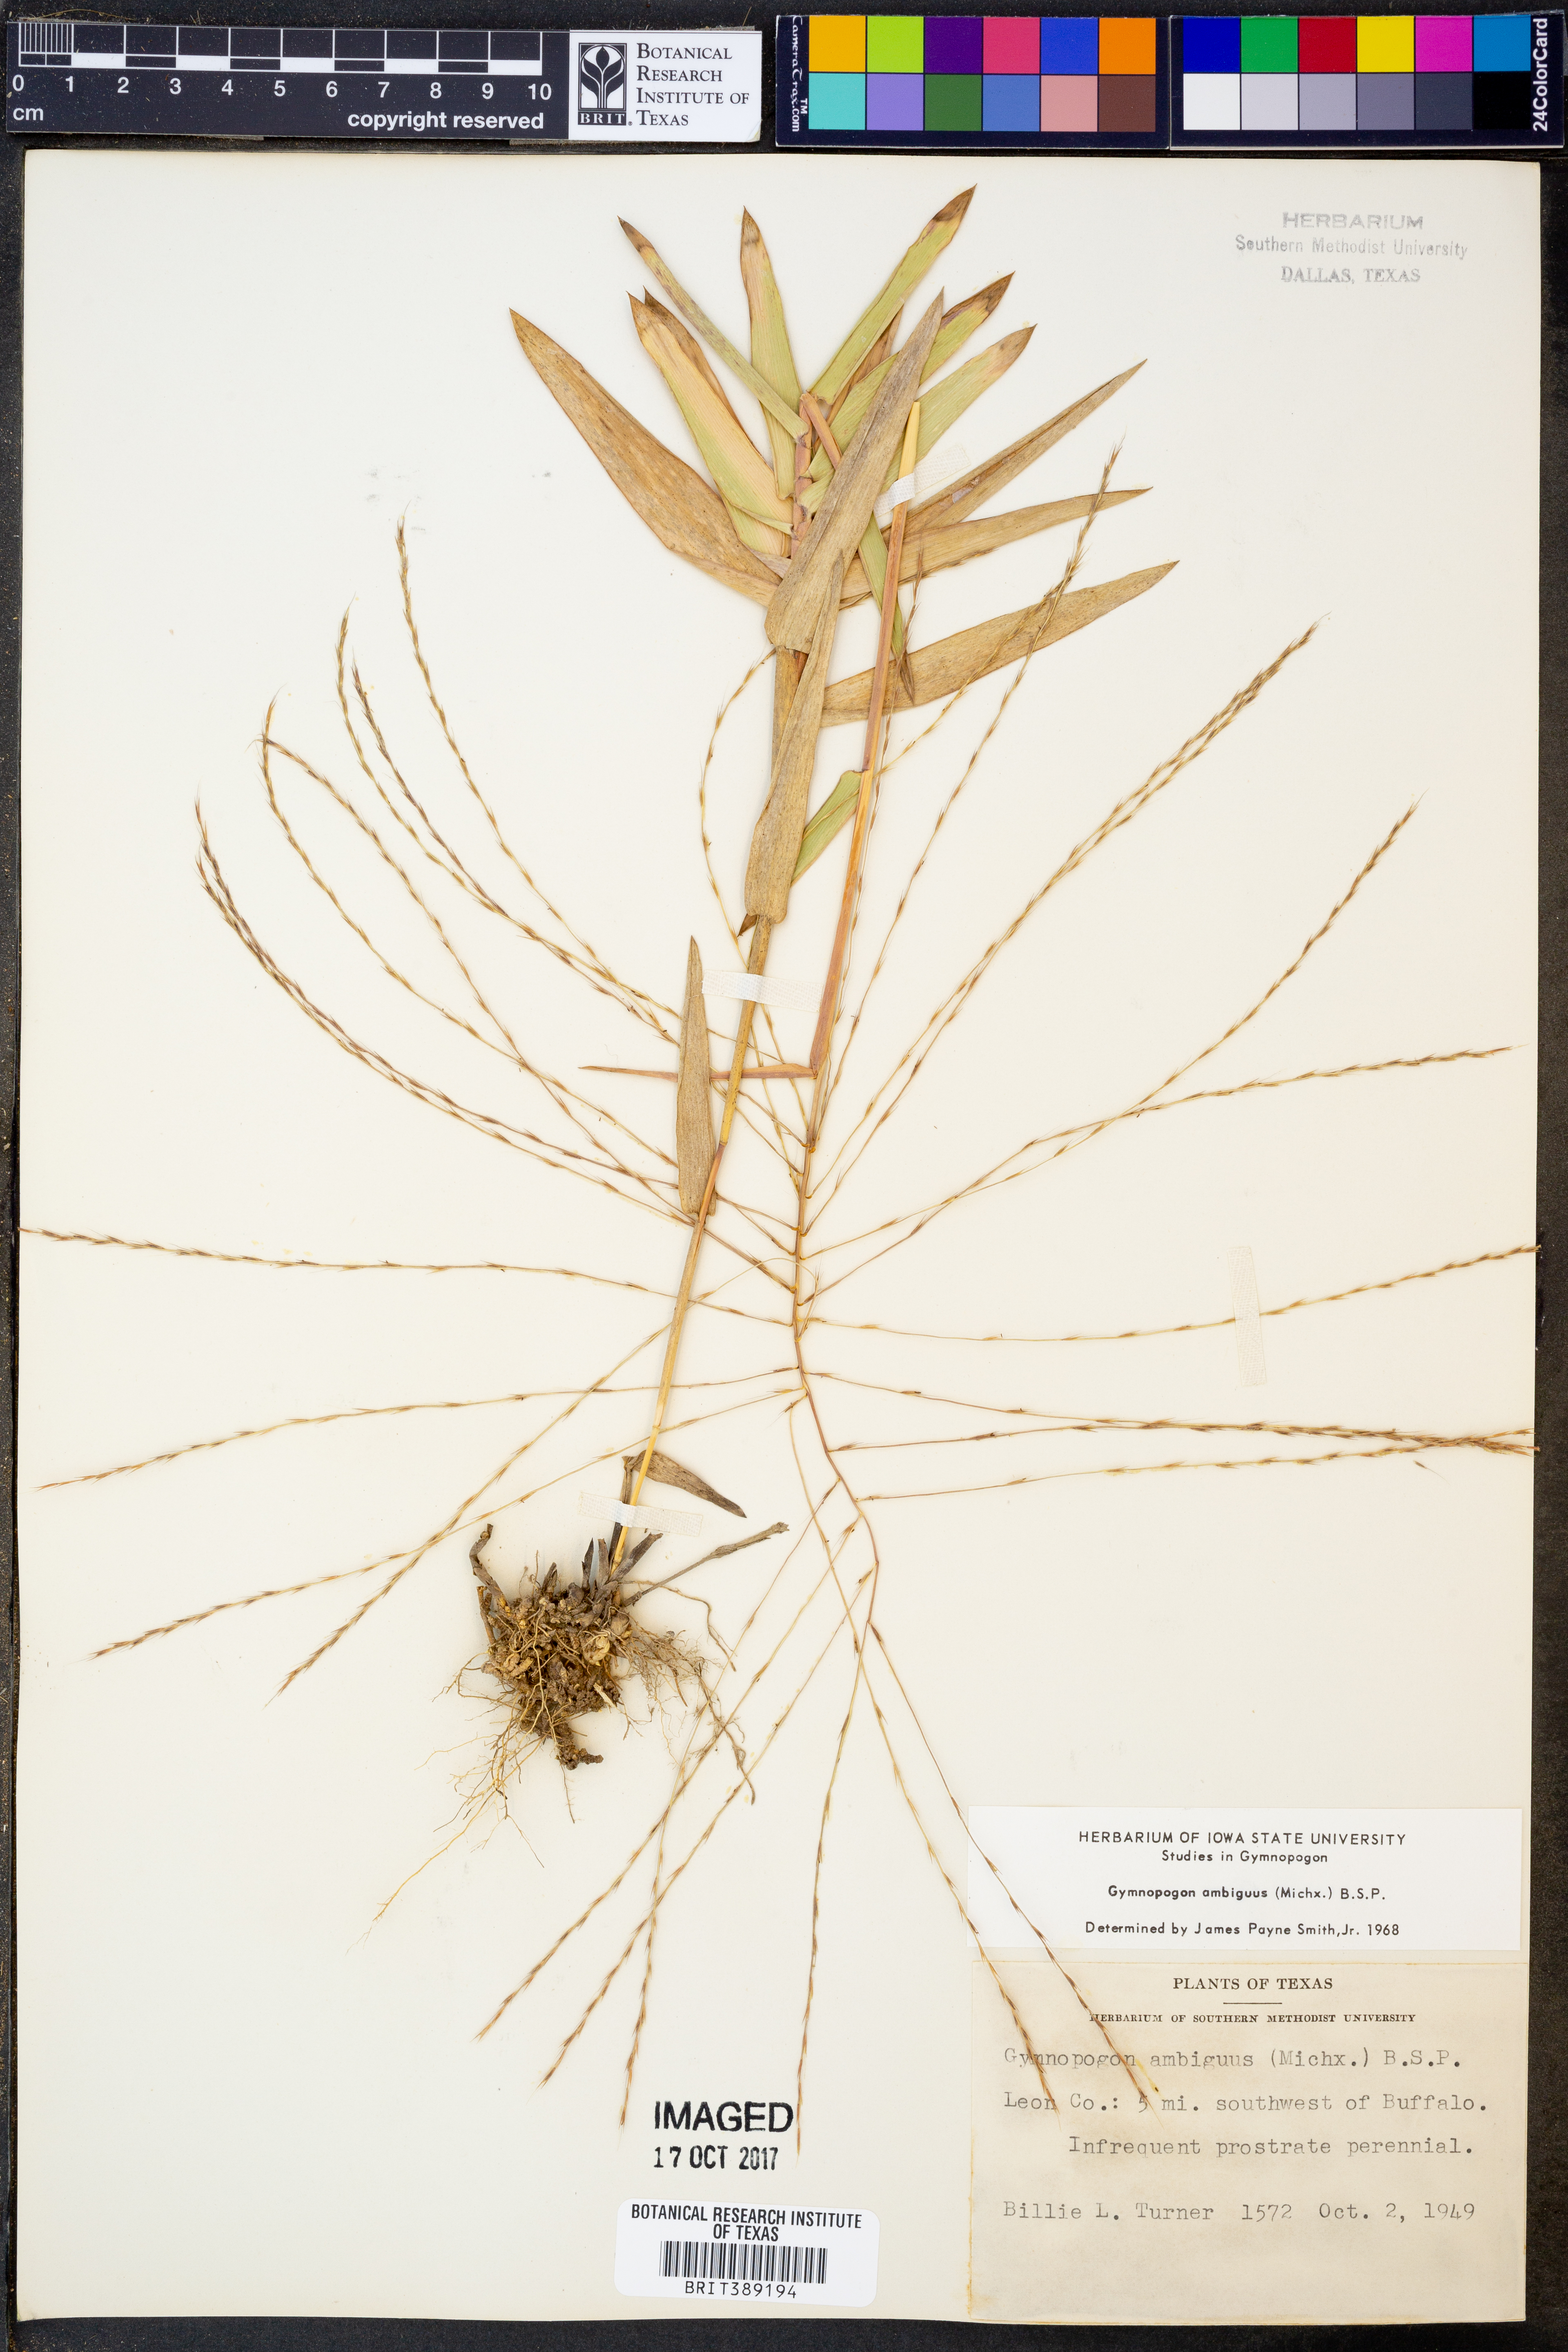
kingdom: Plantae
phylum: Tracheophyta
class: Liliopsida
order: Poales
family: Poaceae
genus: Gymnopogon
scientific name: Gymnopogon ambiguus
